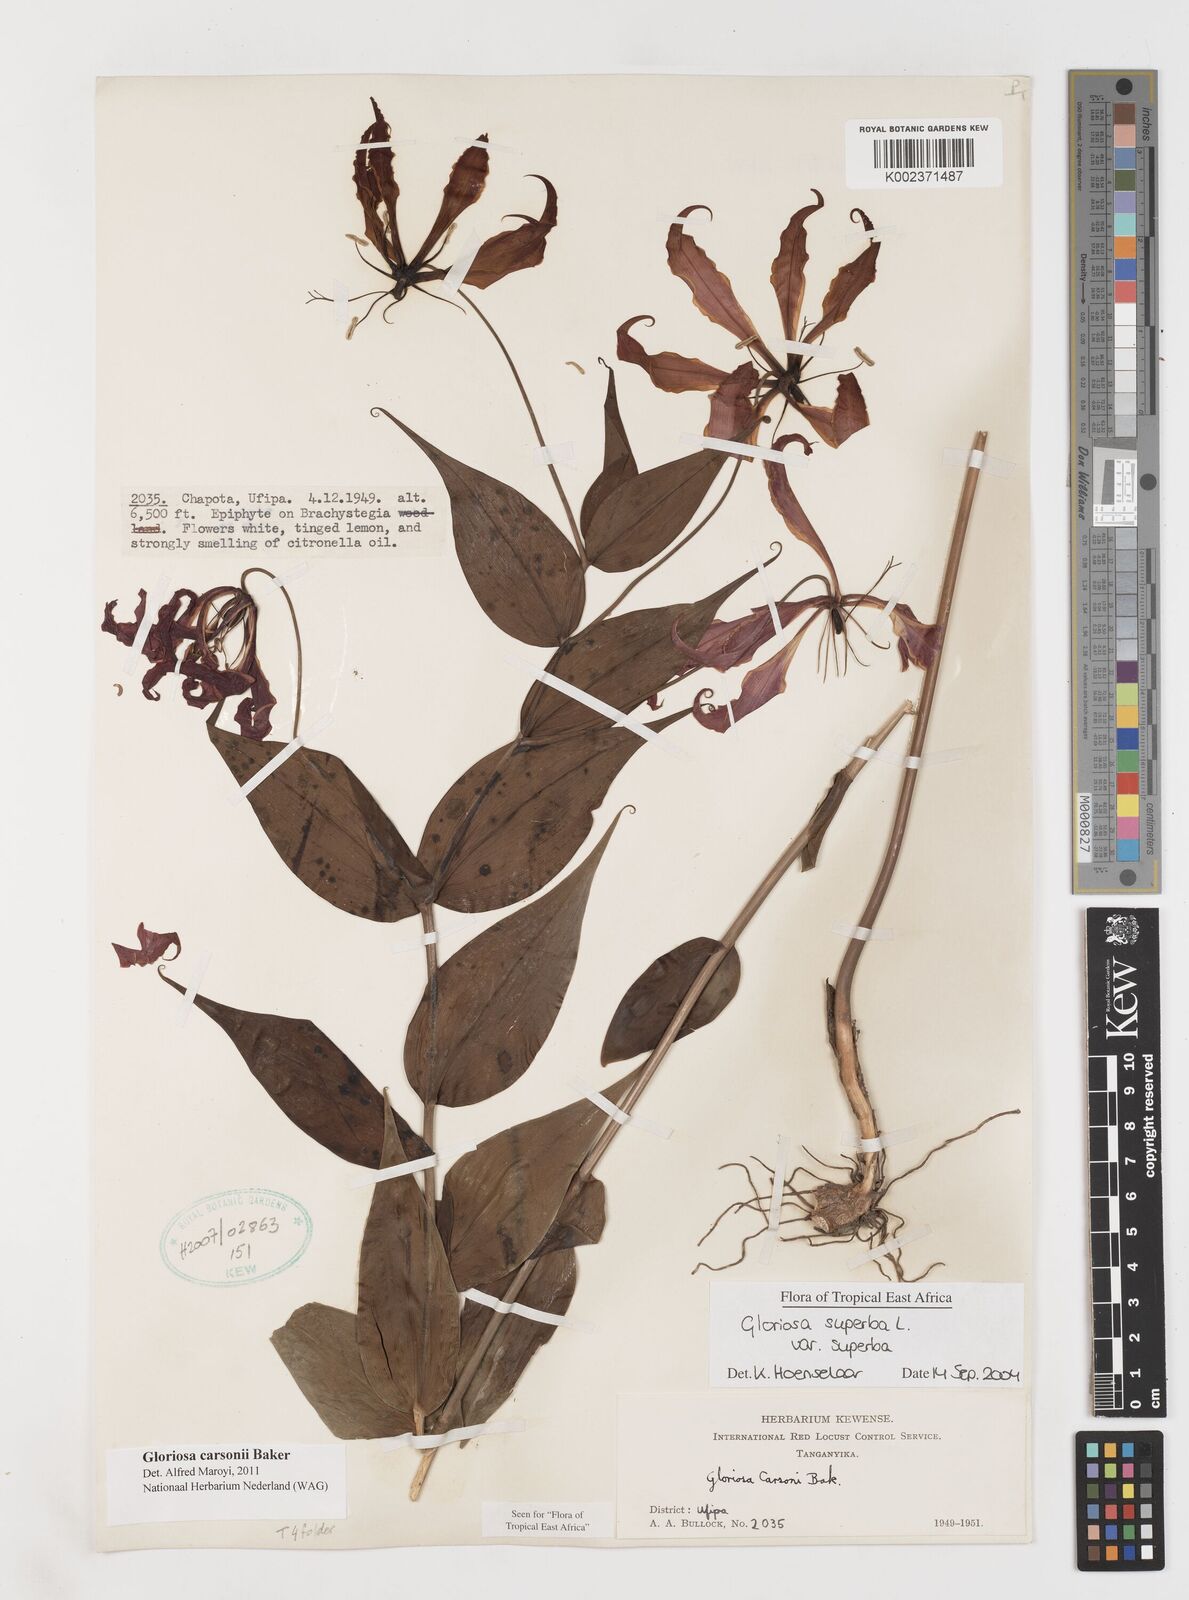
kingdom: Plantae
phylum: Tracheophyta
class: Liliopsida
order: Liliales
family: Colchicaceae
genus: Gloriosa
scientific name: Gloriosa carsonii
